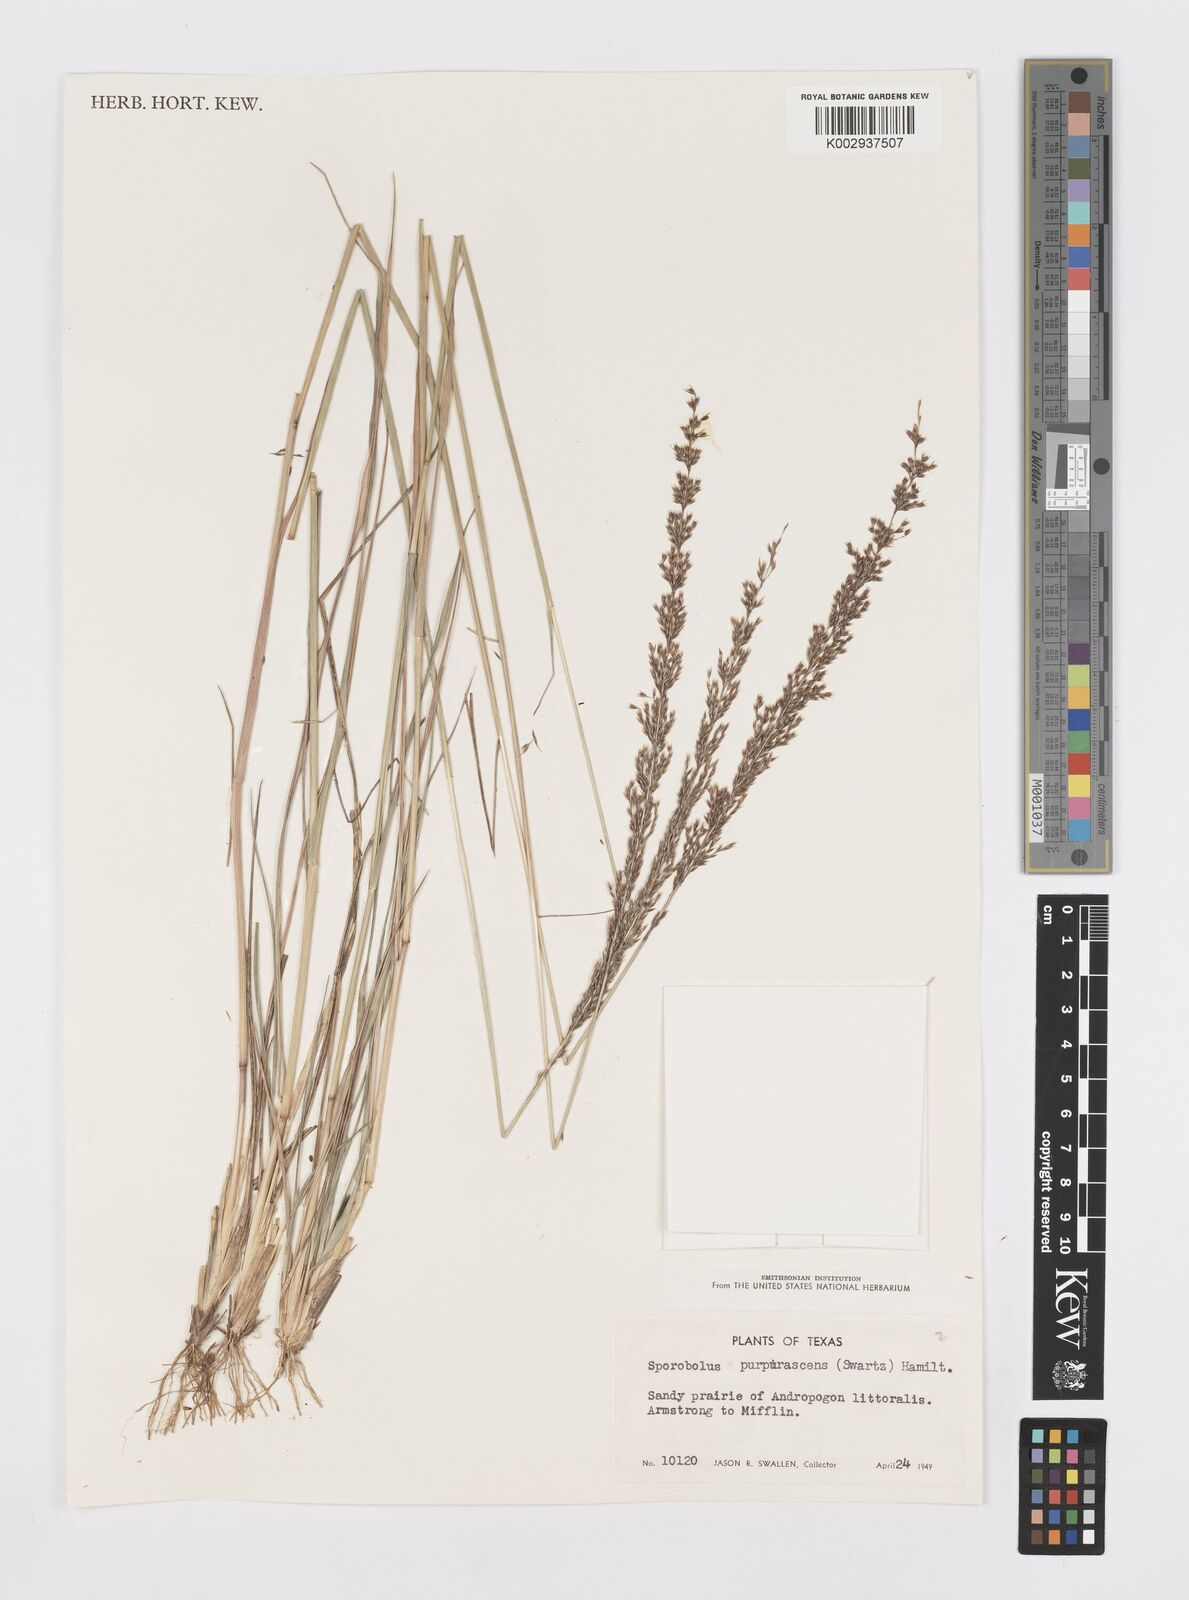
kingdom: Plantae
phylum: Tracheophyta
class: Liliopsida
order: Poales
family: Poaceae
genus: Sporobolus
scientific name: Sporobolus purpurascens
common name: Purple dropseed
